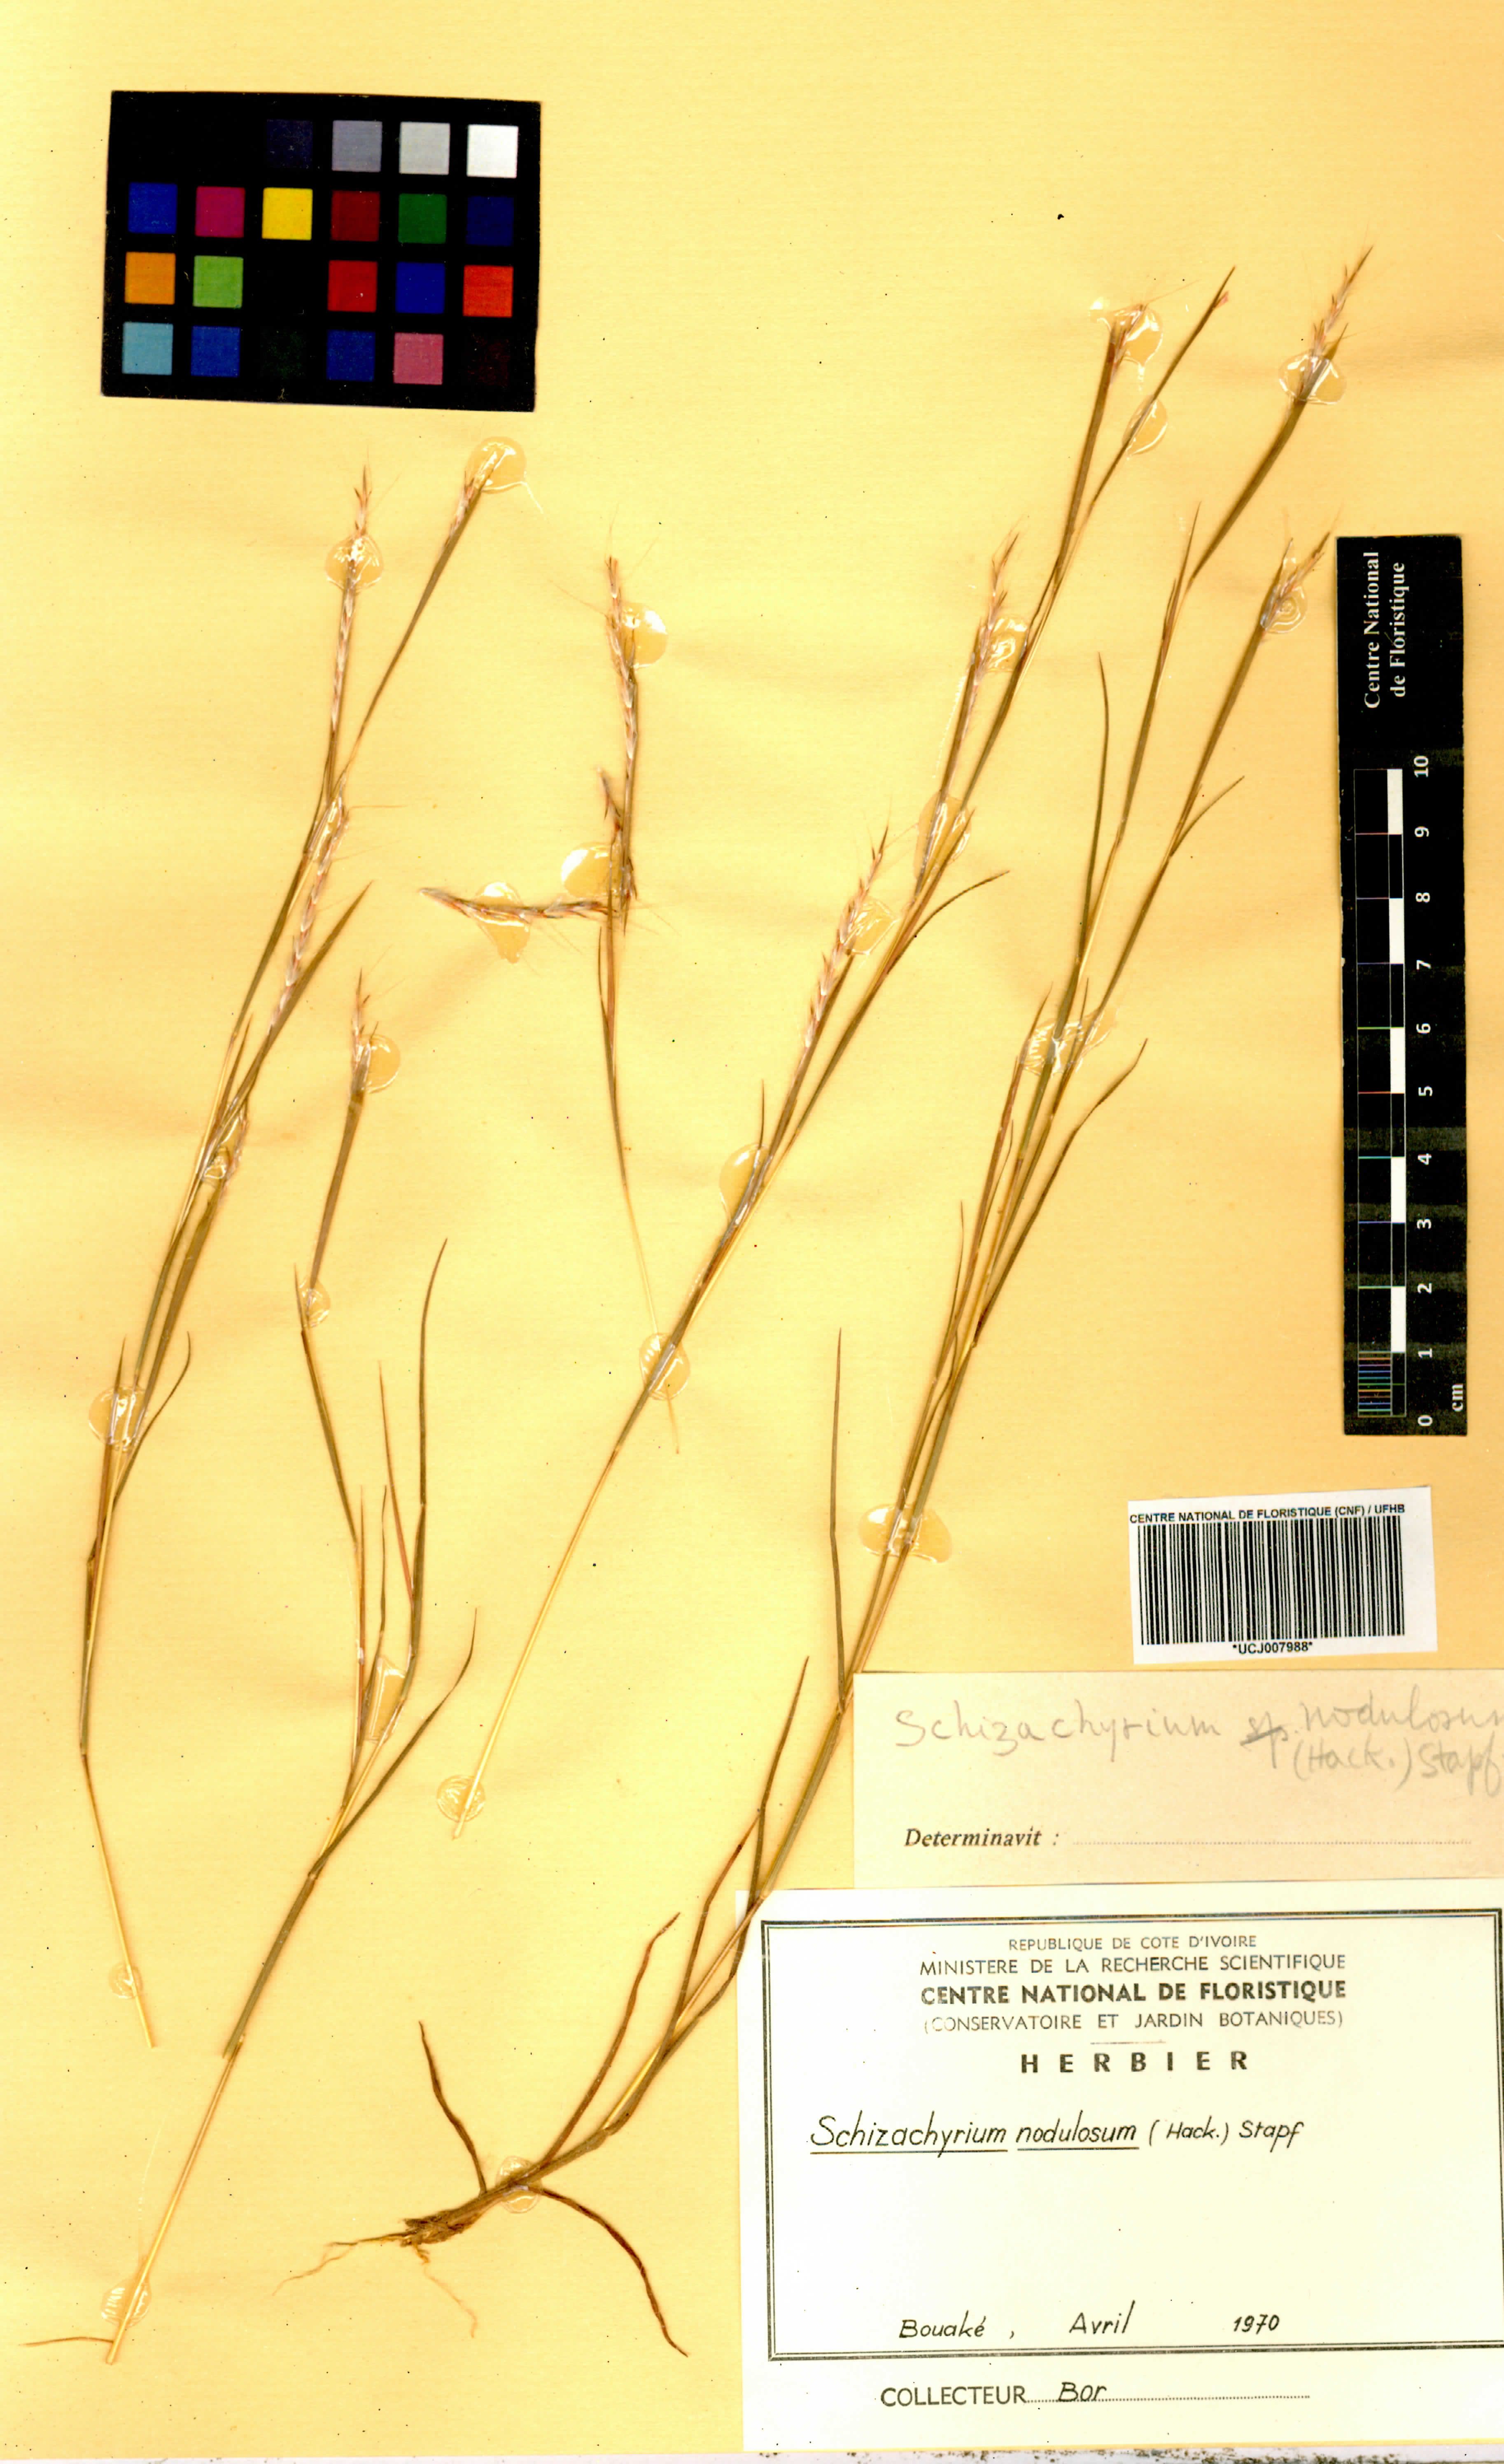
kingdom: Plantae
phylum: Tracheophyta
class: Liliopsida
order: Poales
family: Poaceae
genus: Schizachyrium
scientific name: Schizachyrium nodulosum
